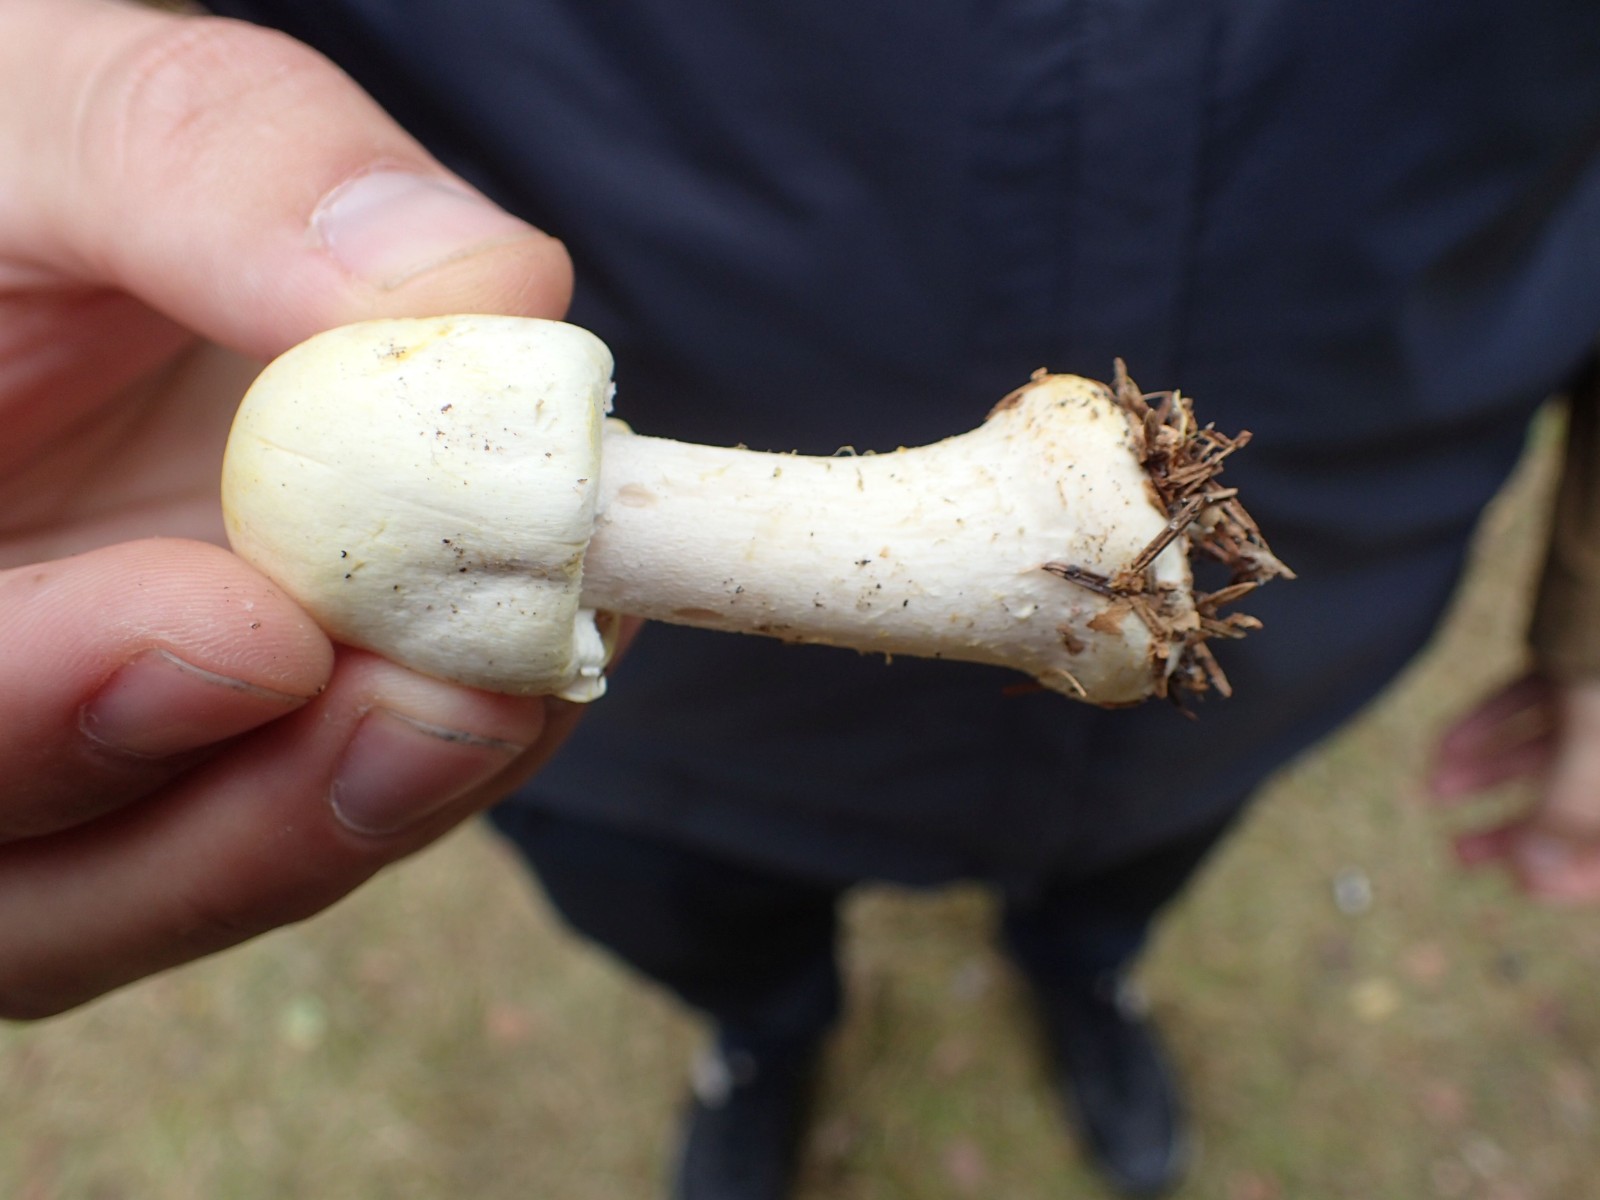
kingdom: Fungi
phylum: Basidiomycota
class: Agaricomycetes
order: Agaricales
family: Agaricaceae
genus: Agaricus
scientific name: Agaricus sylvicola
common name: gulhvid champignon
